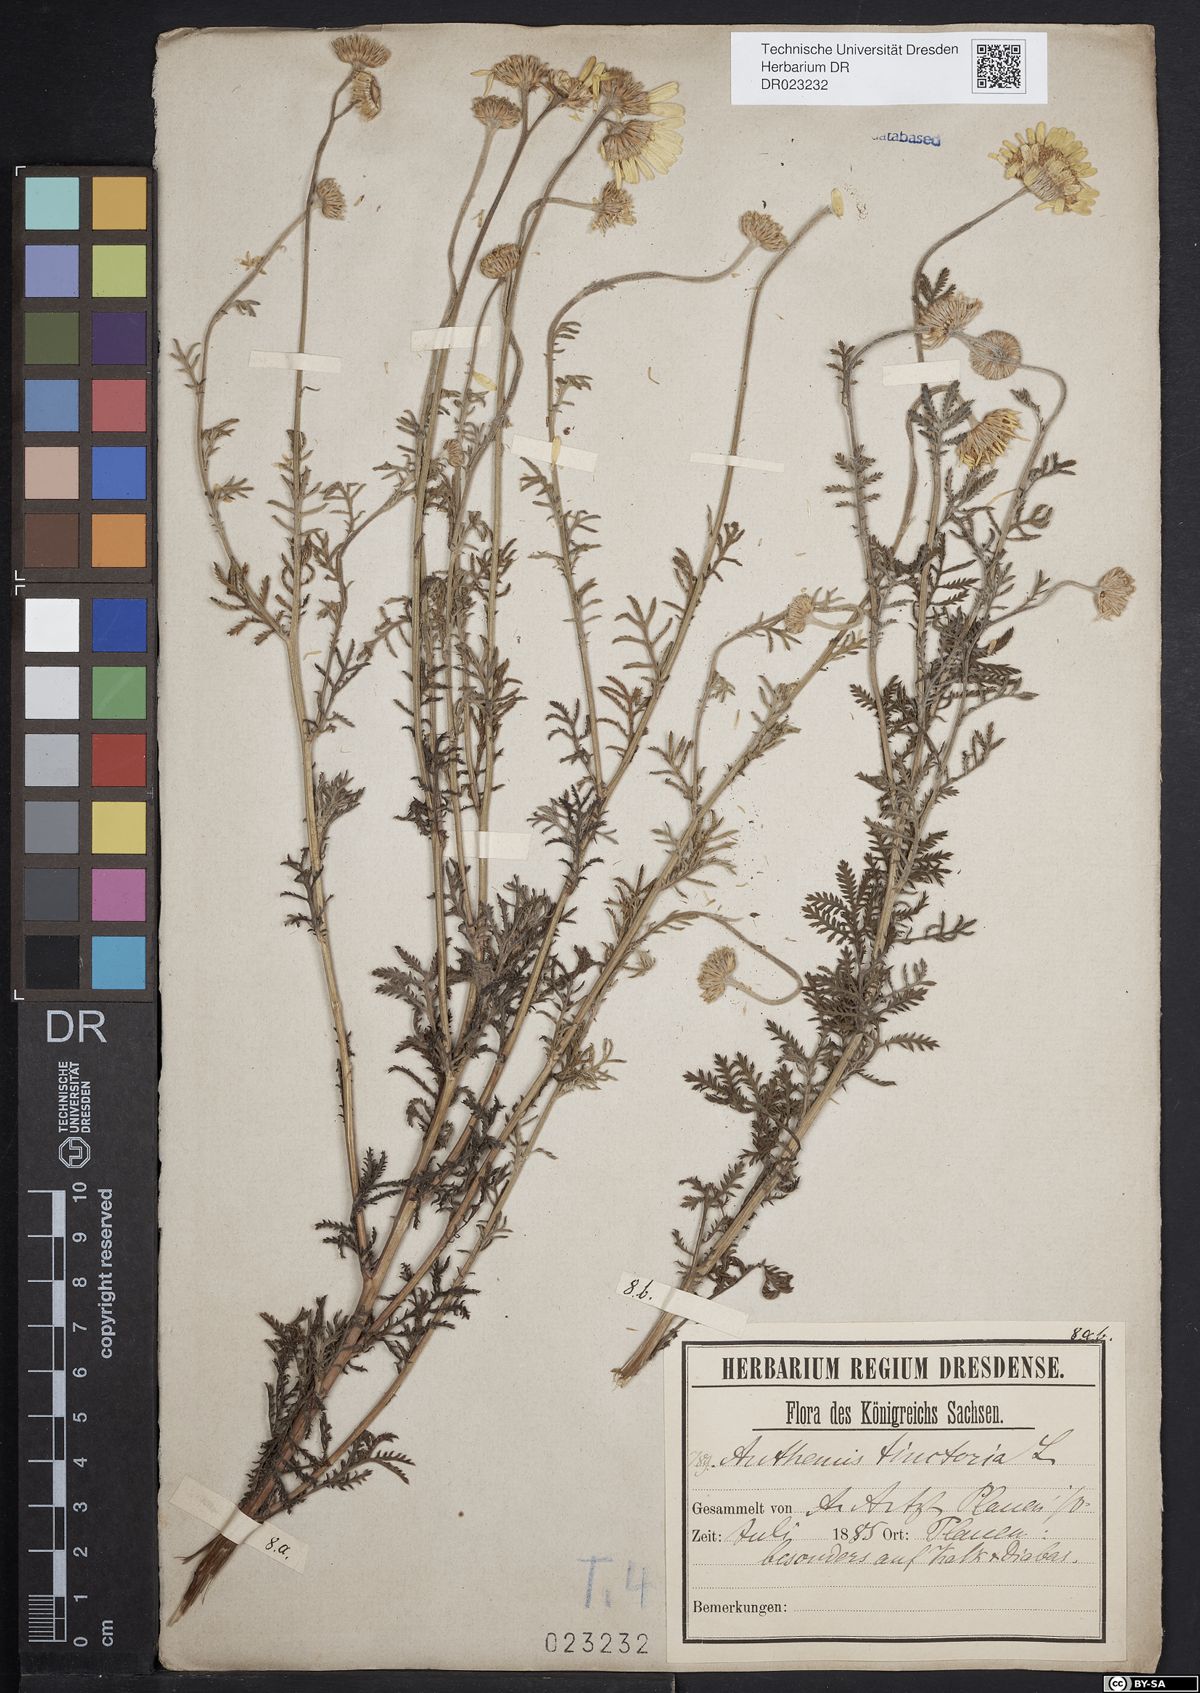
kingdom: Plantae
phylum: Tracheophyta
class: Magnoliopsida
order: Asterales
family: Asteraceae
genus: Cota
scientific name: Cota tinctoria
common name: Golden chamomile
